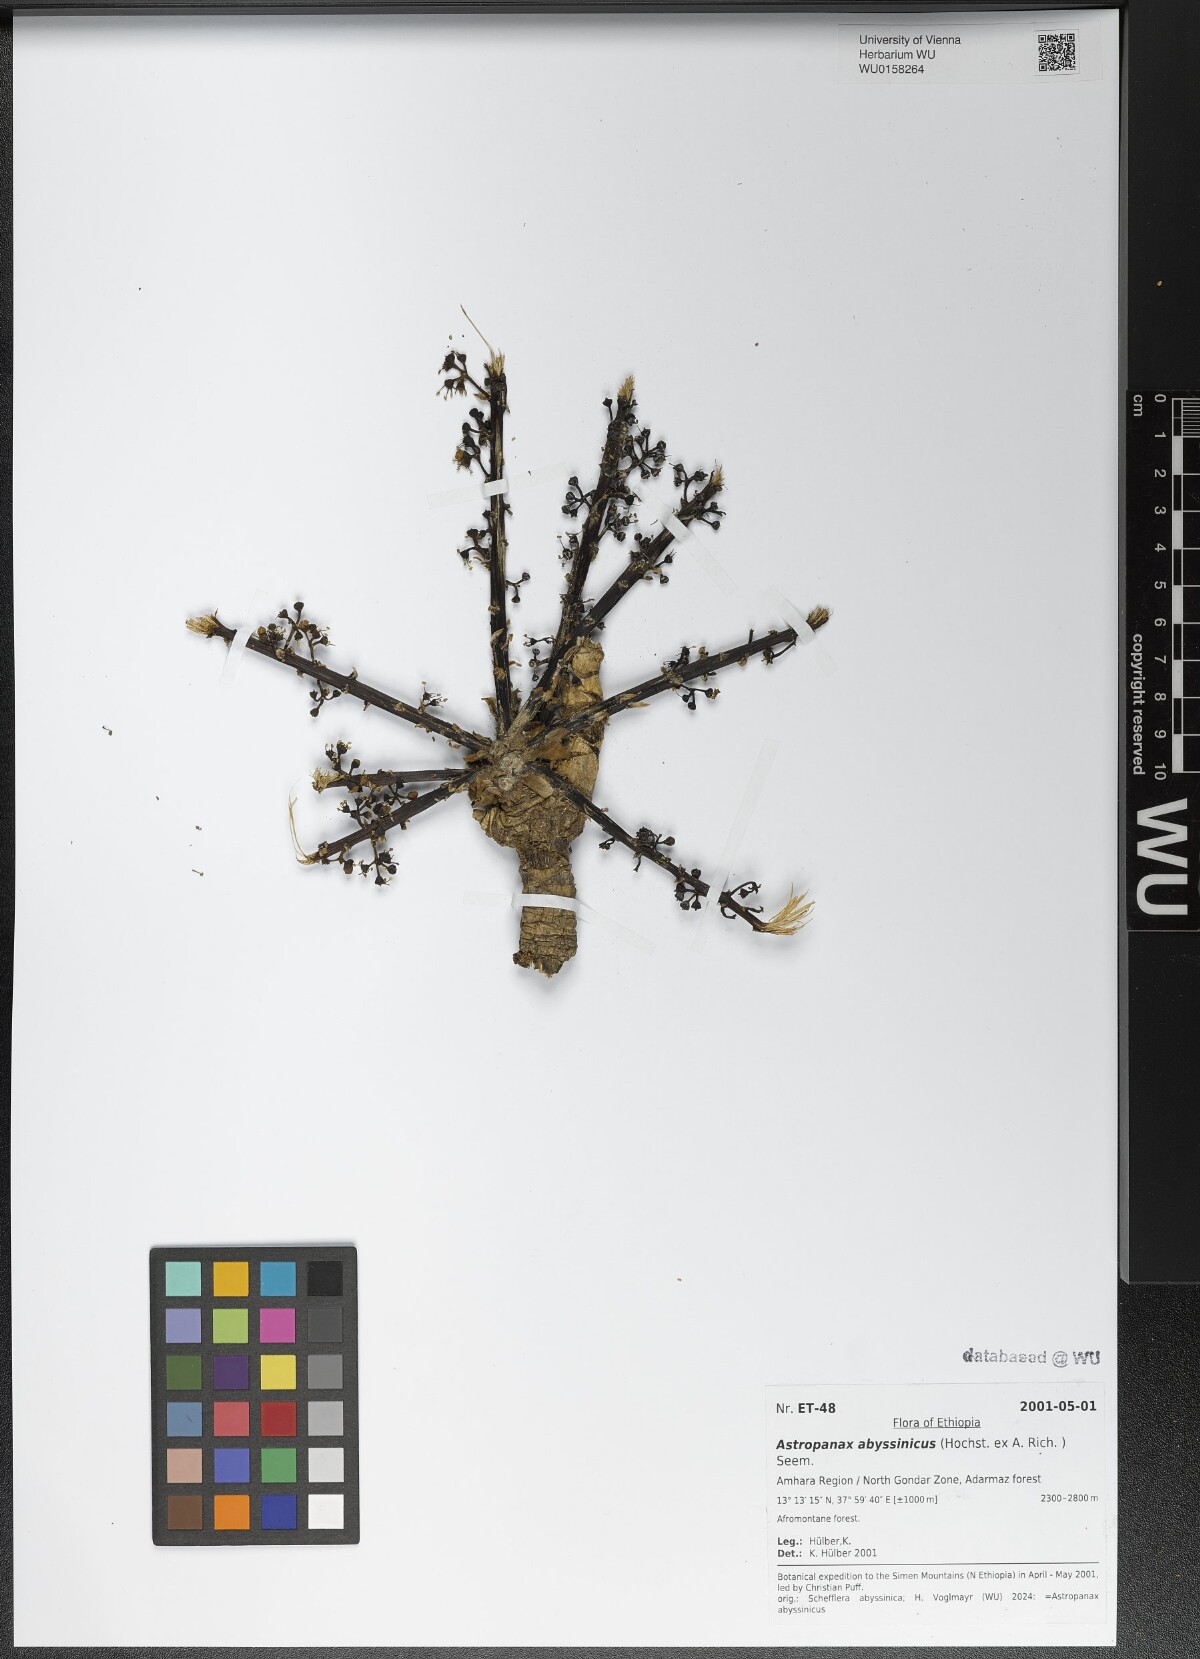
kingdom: Plantae
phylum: Tracheophyta
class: Magnoliopsida
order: Apiales
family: Araliaceae
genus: Astropanax
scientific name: Astropanax abyssinicum
